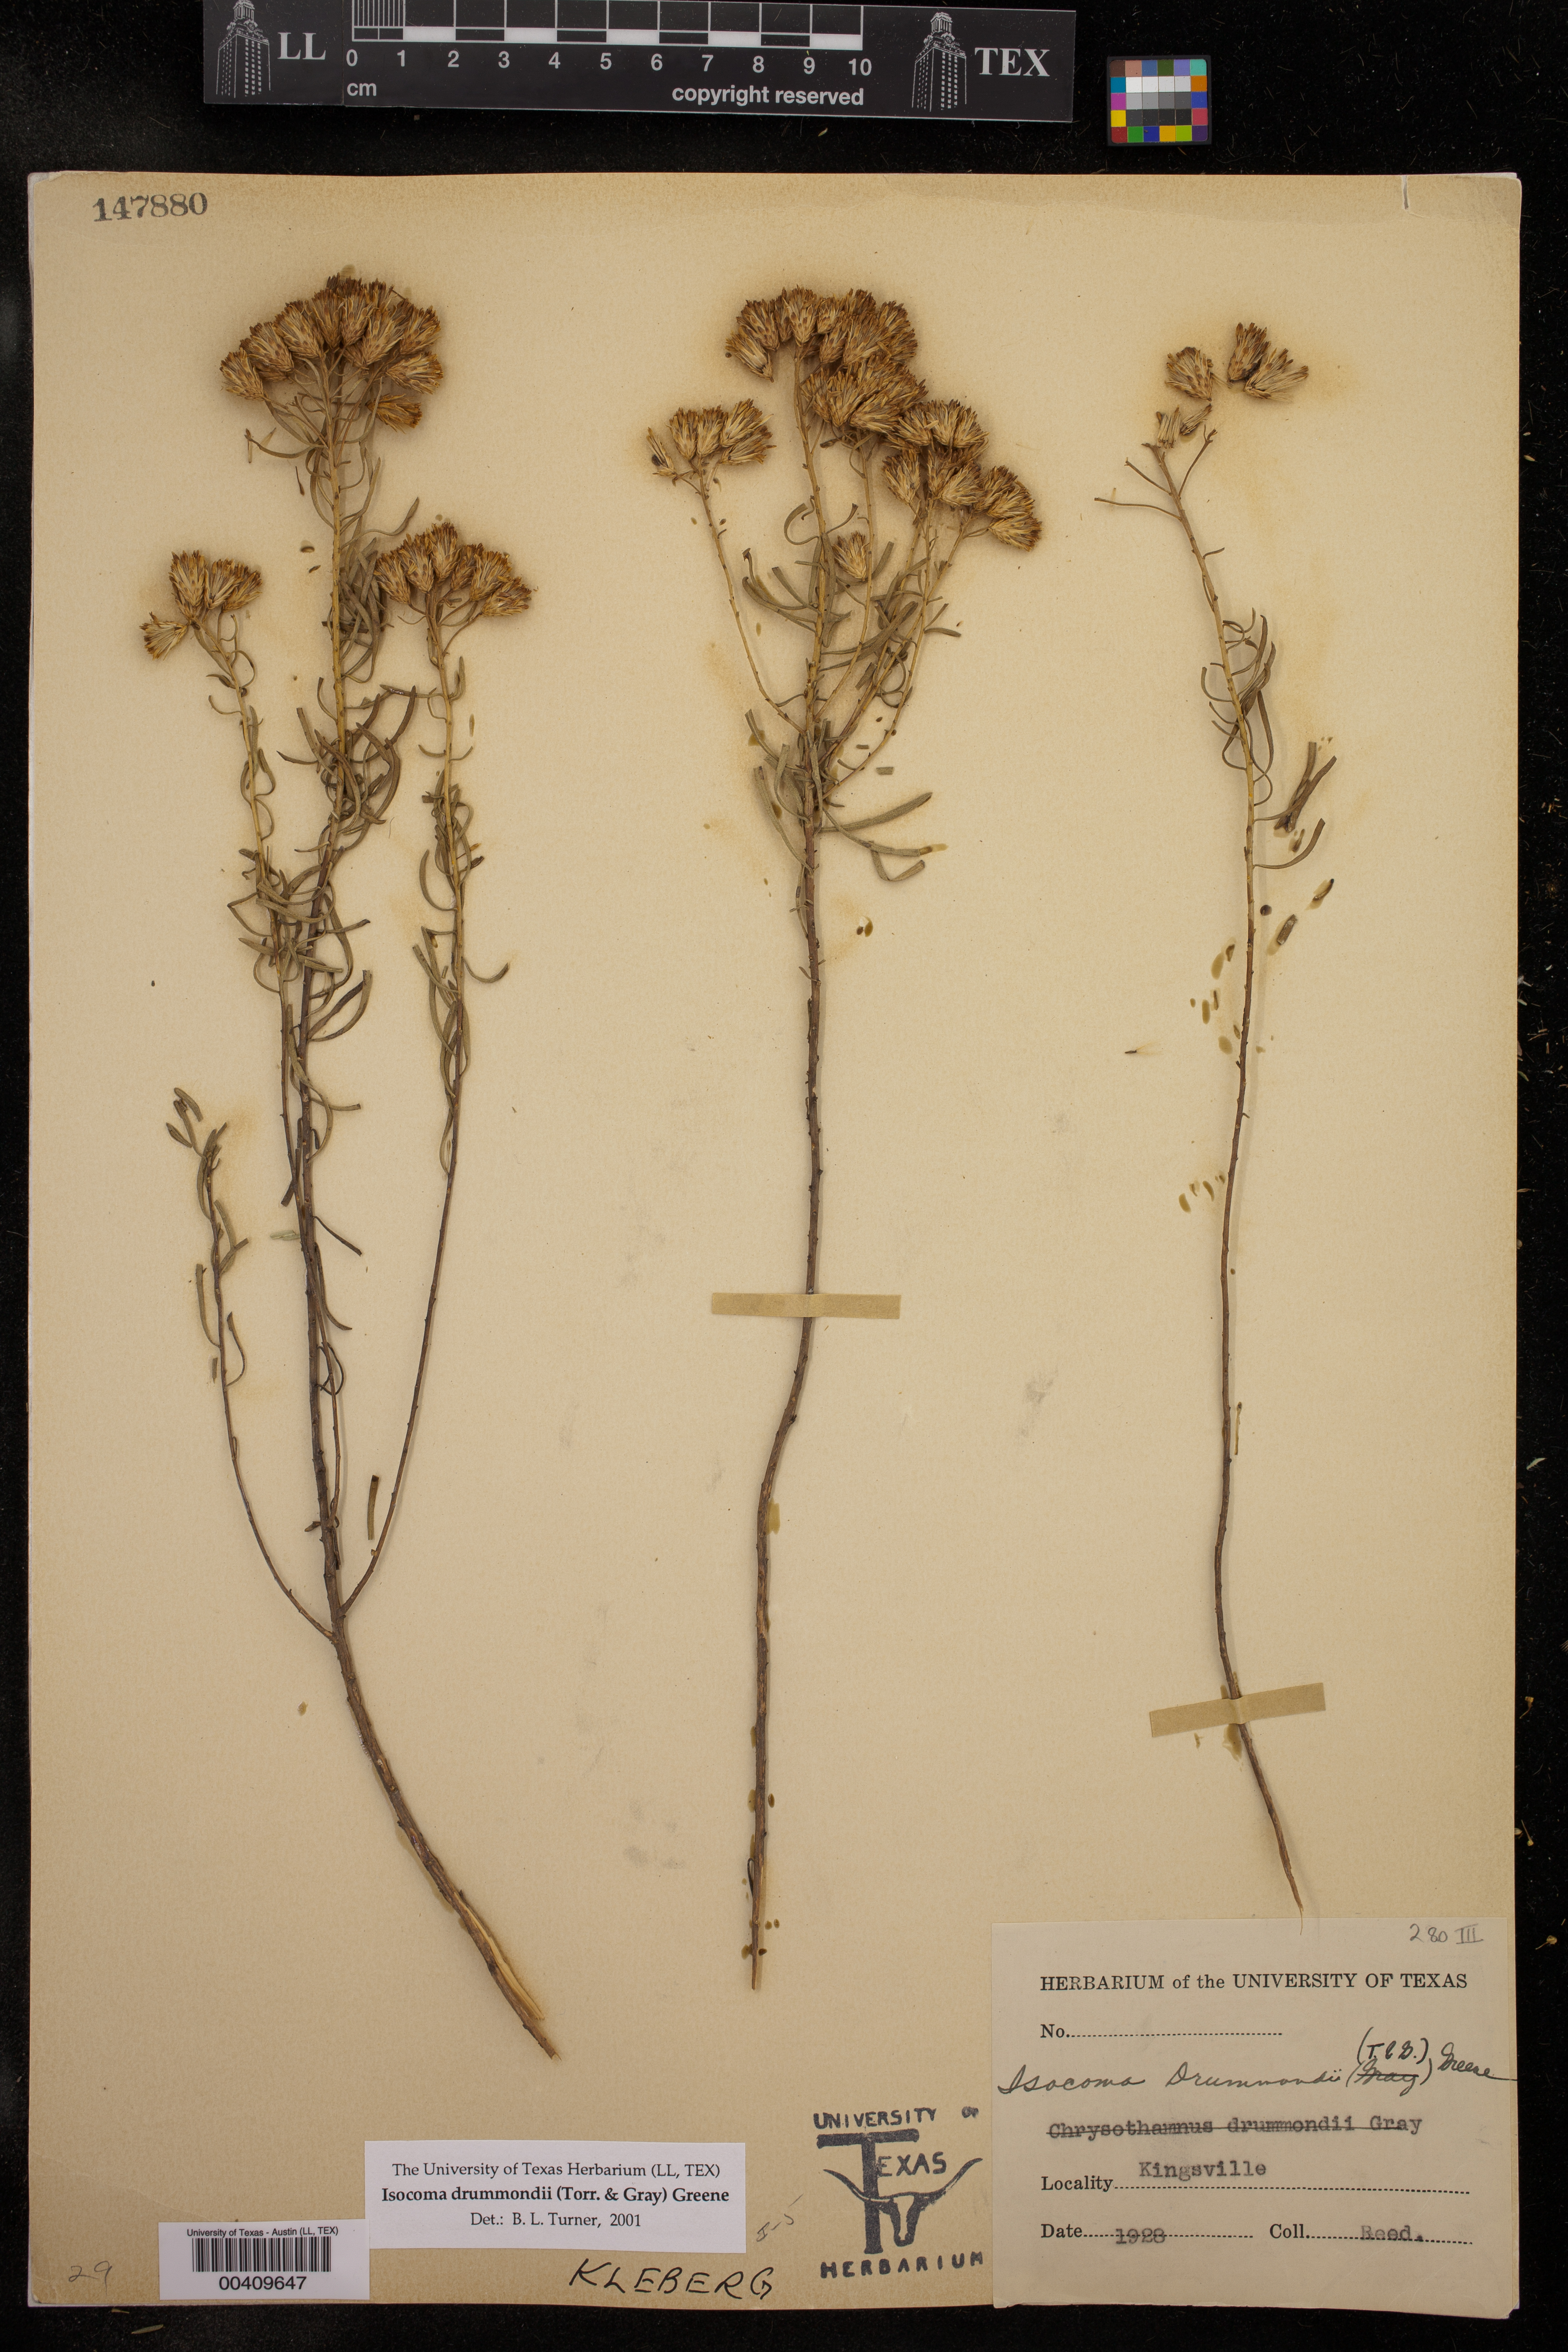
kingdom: Plantae
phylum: Tracheophyta
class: Magnoliopsida
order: Asterales
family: Asteraceae
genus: Isocoma
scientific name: Isocoma drummondii
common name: Drummond's jimmyweed
